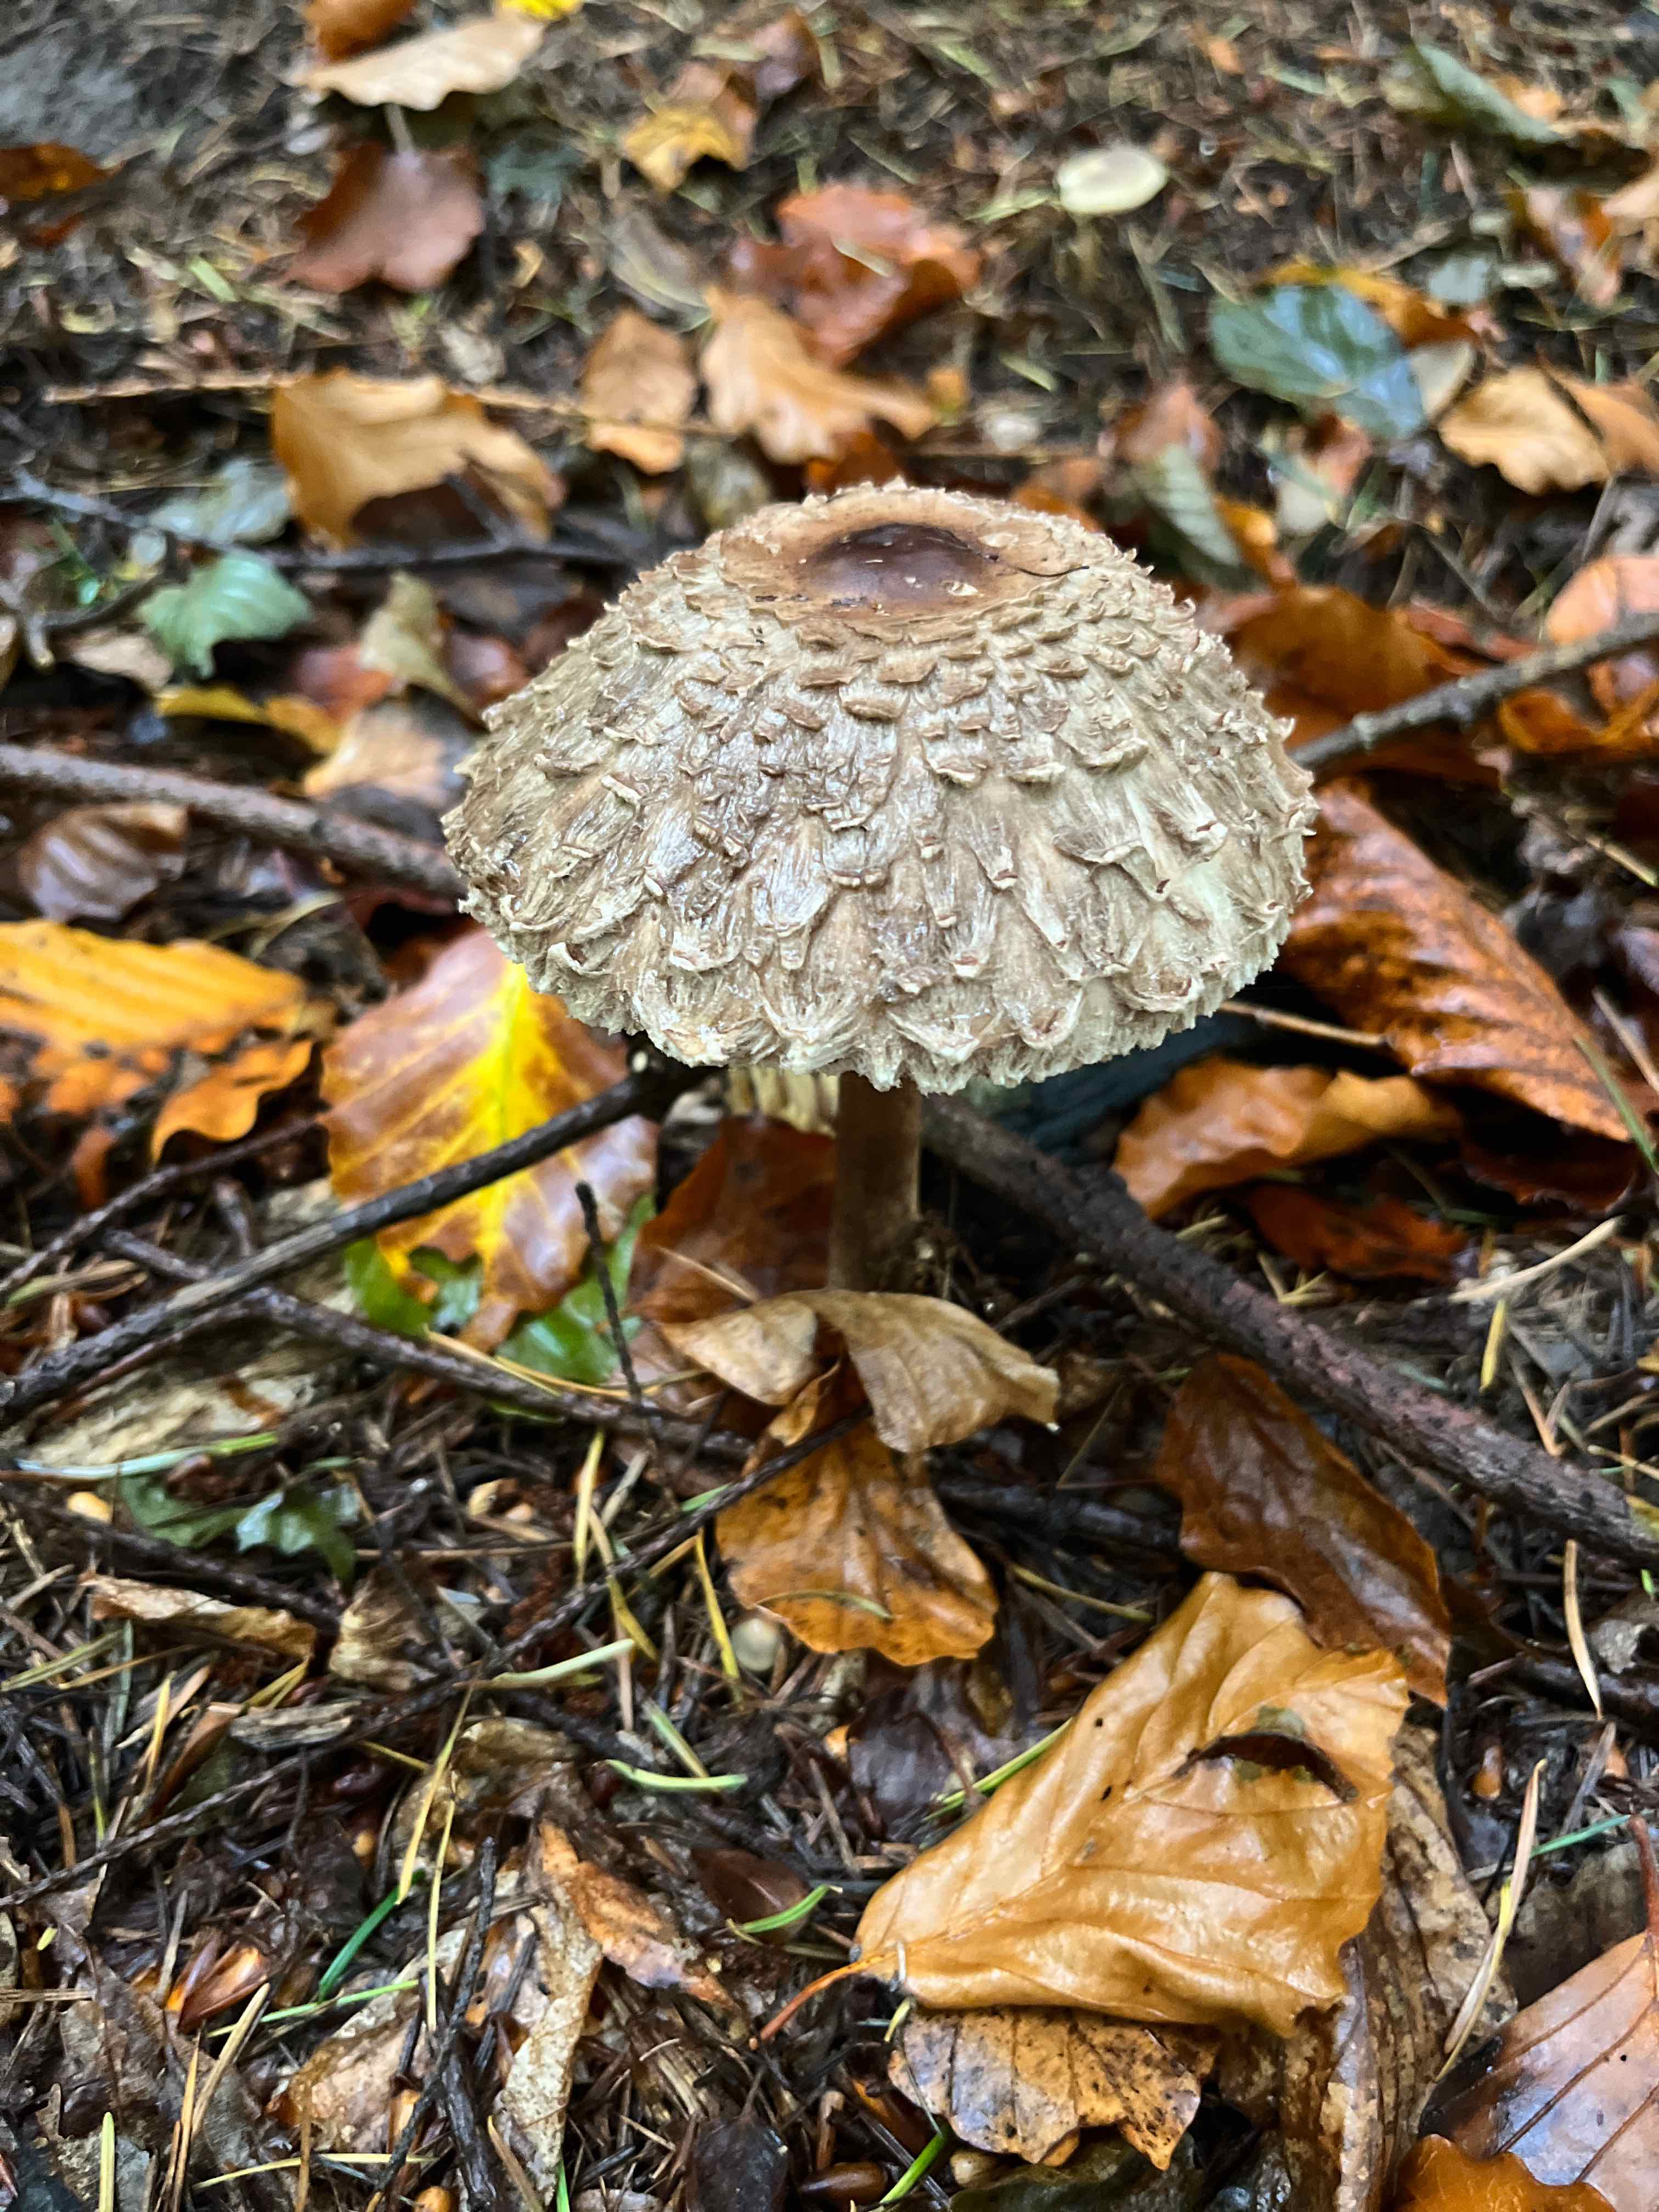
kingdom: Fungi
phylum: Basidiomycota
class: Agaricomycetes
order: Agaricales
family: Agaricaceae
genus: Chlorophyllum
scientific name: Chlorophyllum olivieri
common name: almindelig rabarberhat
